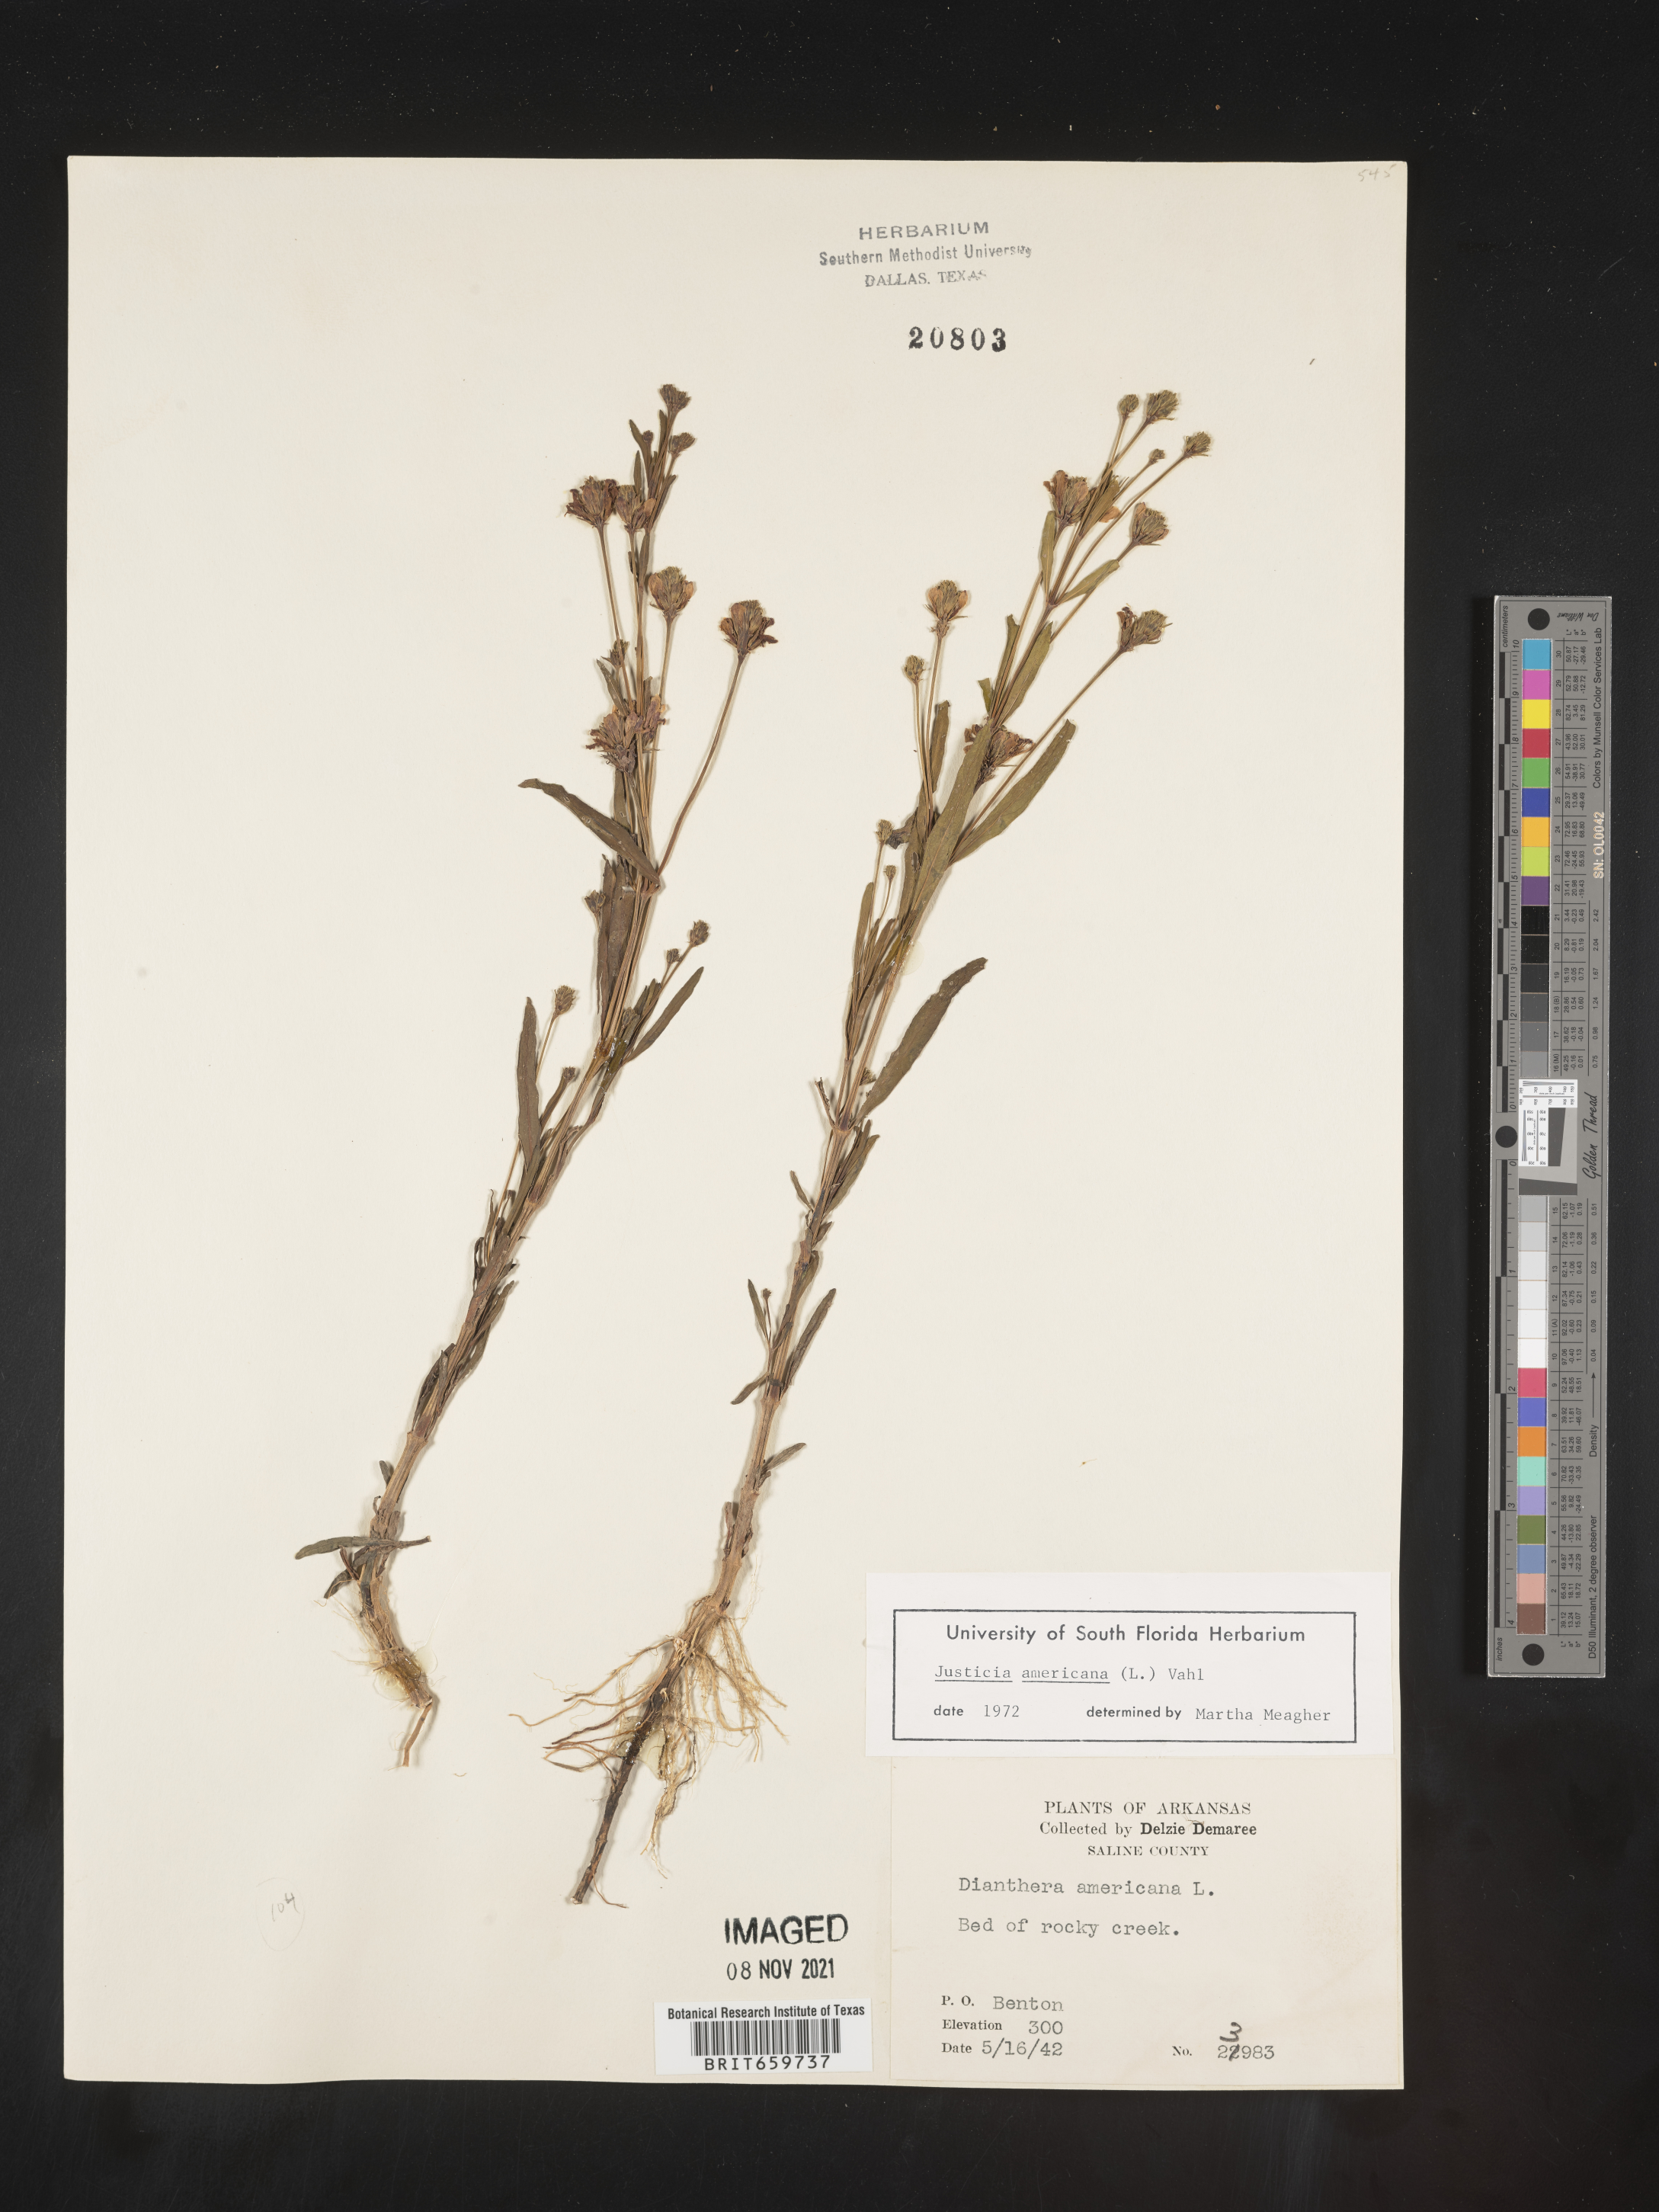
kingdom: Plantae
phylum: Tracheophyta
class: Magnoliopsida
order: Lamiales
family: Acanthaceae
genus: Dianthera
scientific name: Dianthera americana
